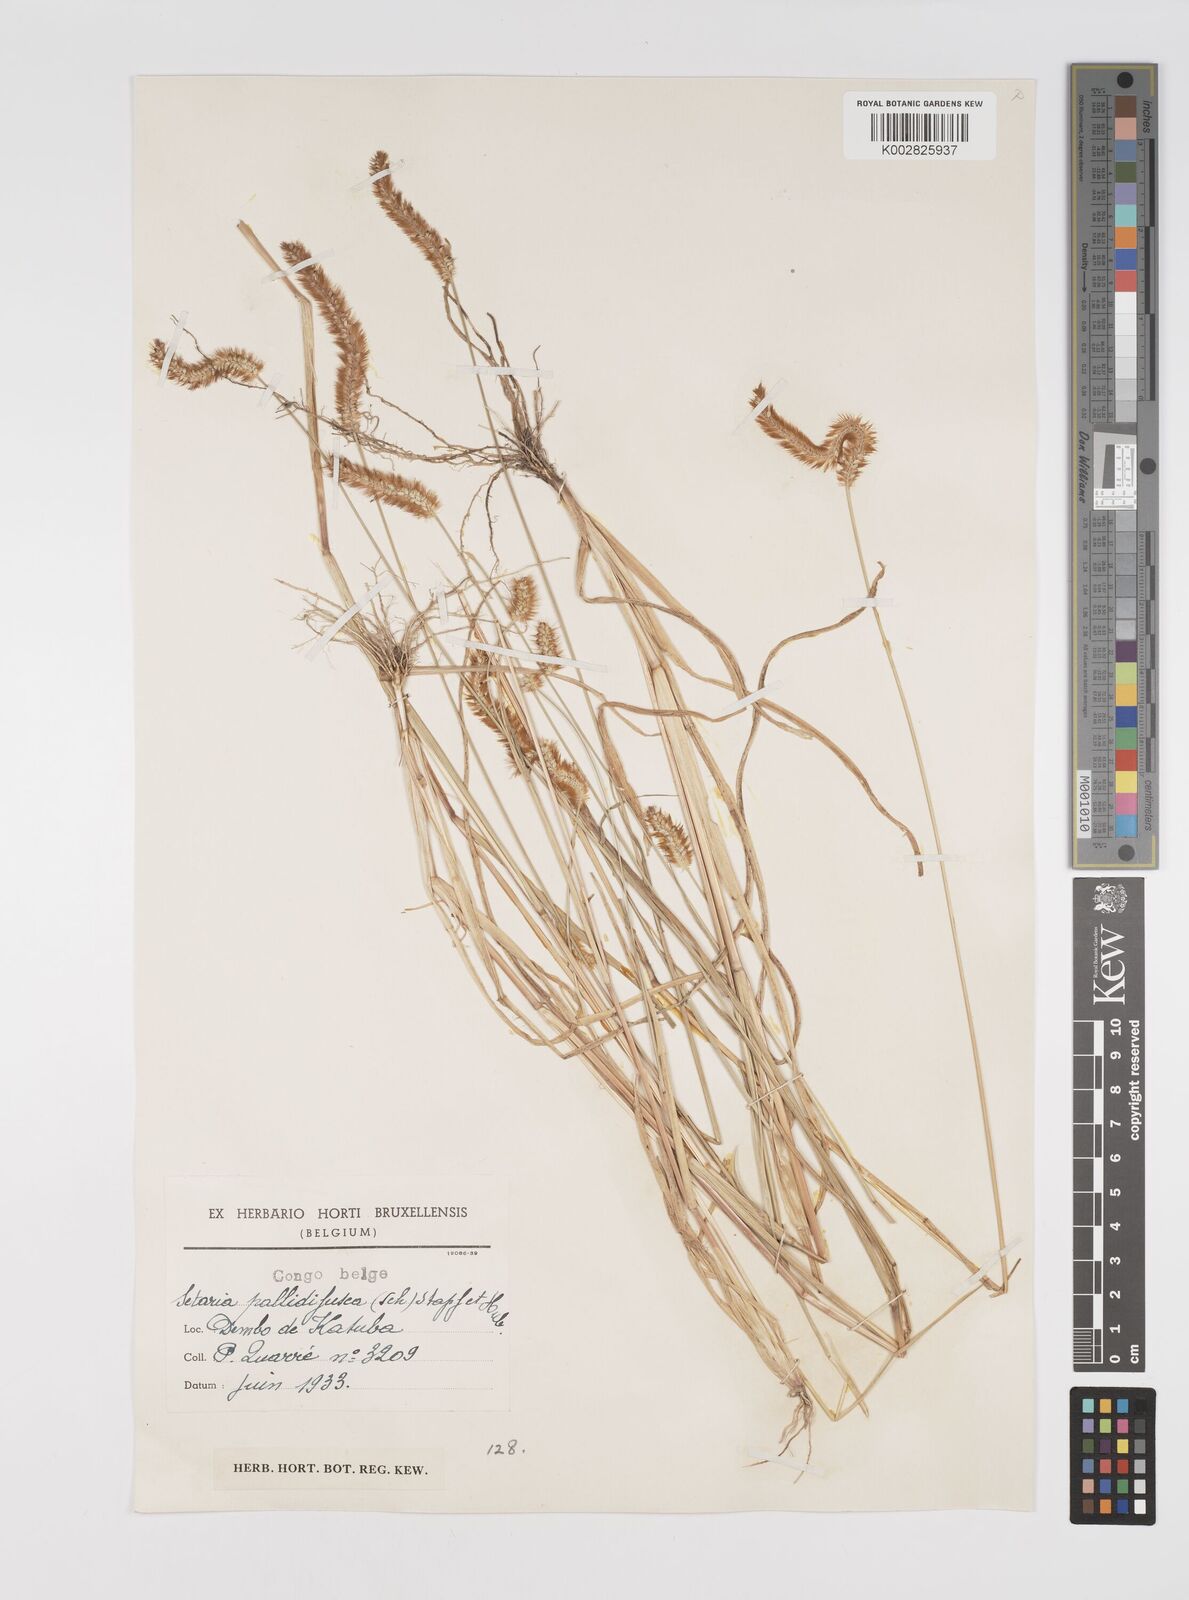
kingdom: Plantae
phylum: Tracheophyta
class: Liliopsida
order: Poales
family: Poaceae
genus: Setaria
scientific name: Setaria pumila
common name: Yellow bristle-grass
